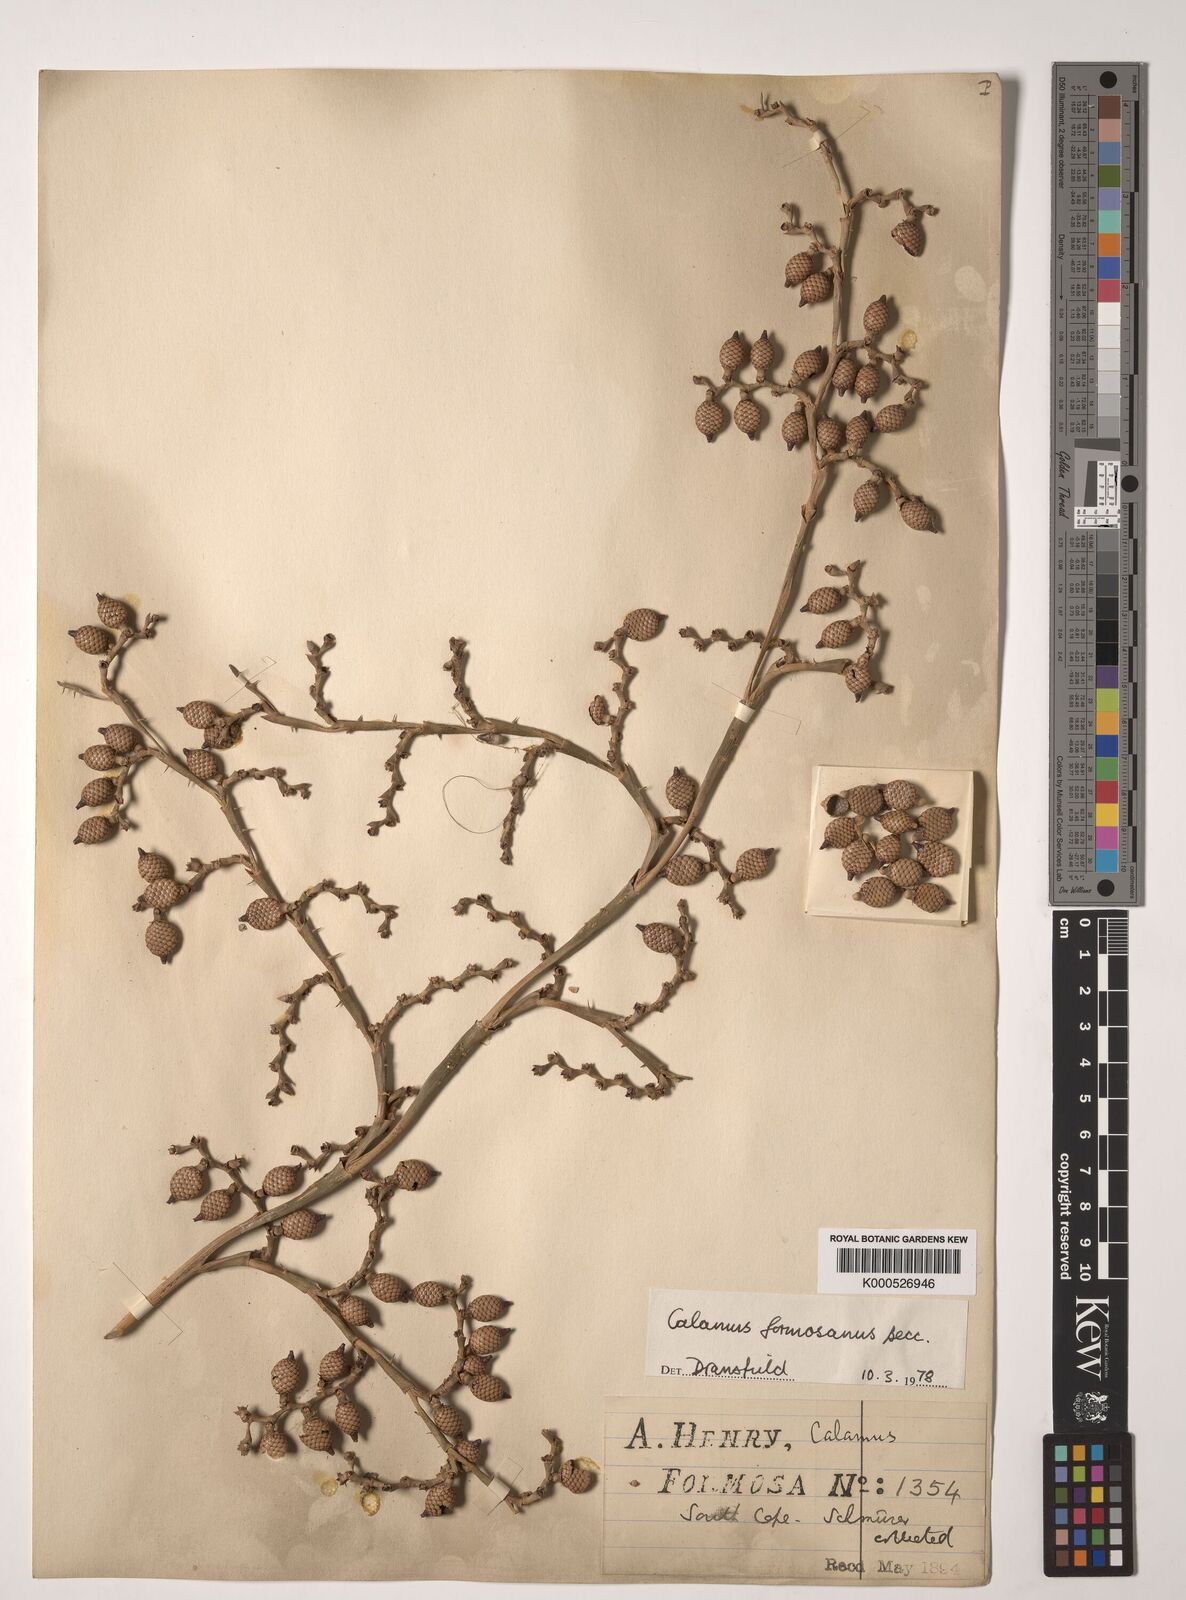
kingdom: Plantae
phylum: Tracheophyta
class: Liliopsida
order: Arecales
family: Arecaceae
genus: Calamus
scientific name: Calamus formosanus
